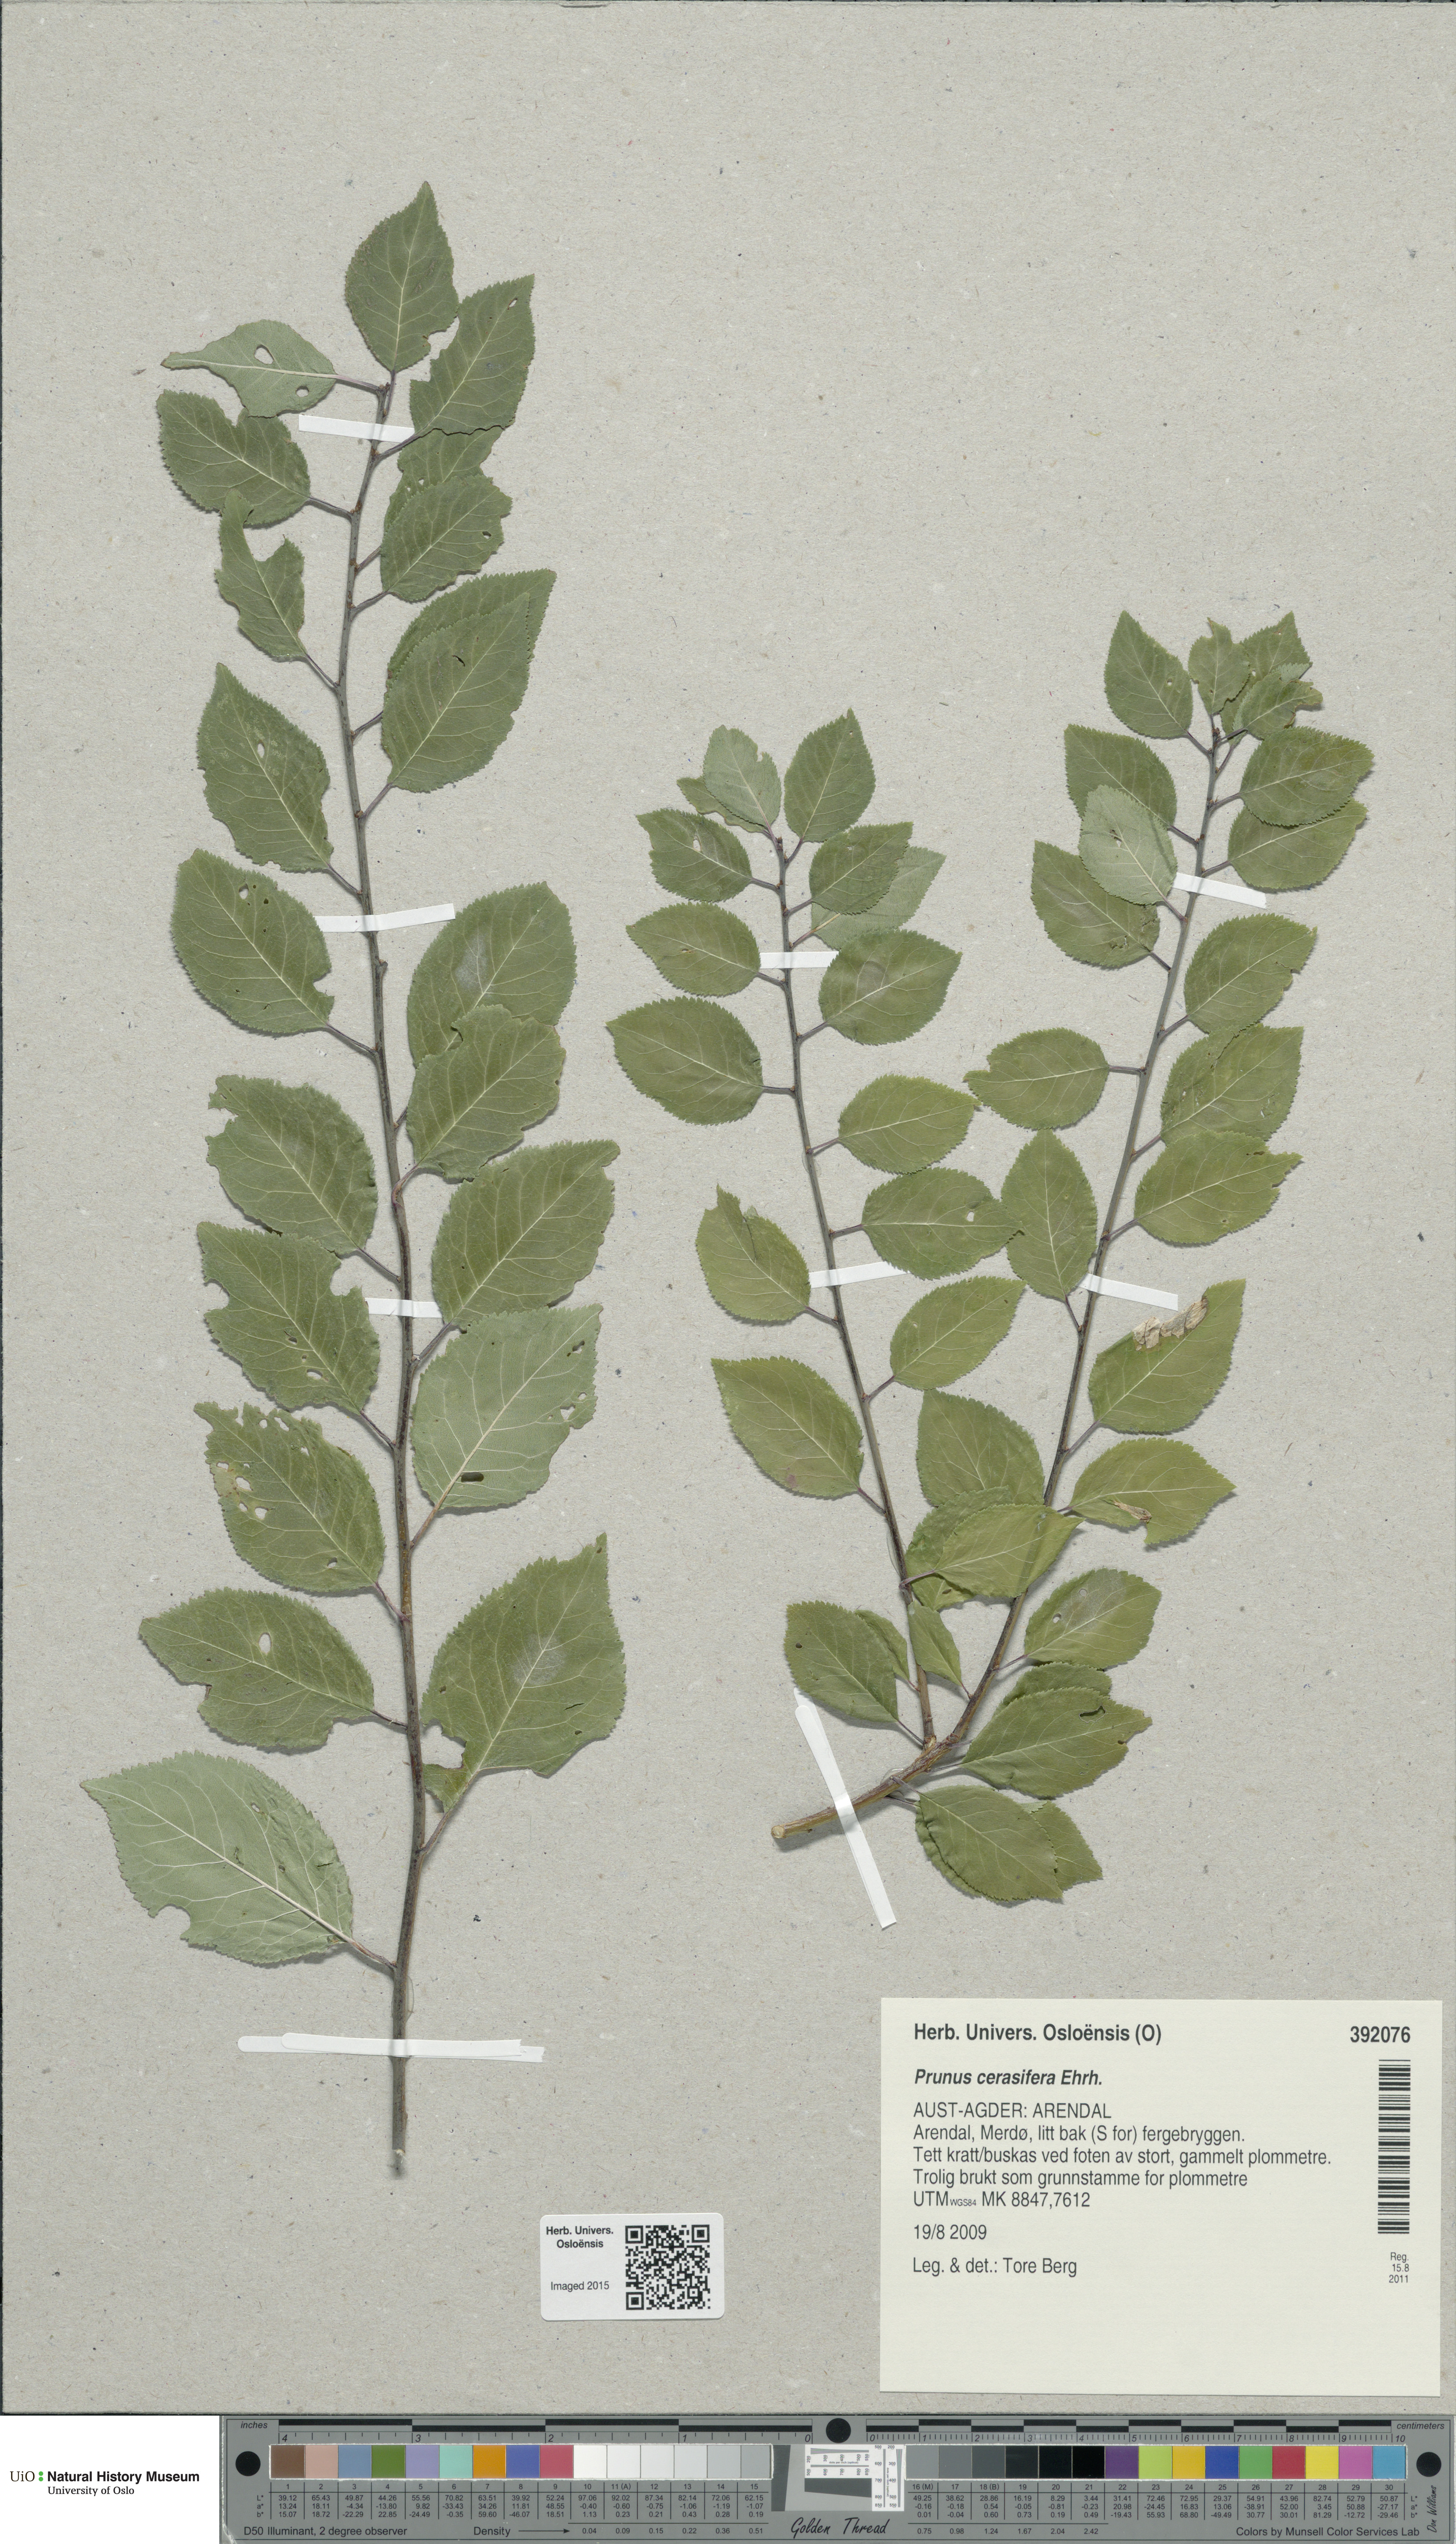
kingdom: Plantae
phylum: Tracheophyta
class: Magnoliopsida
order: Rosales
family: Rosaceae
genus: Prunus
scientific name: Prunus cerasifera
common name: Cherry plum
